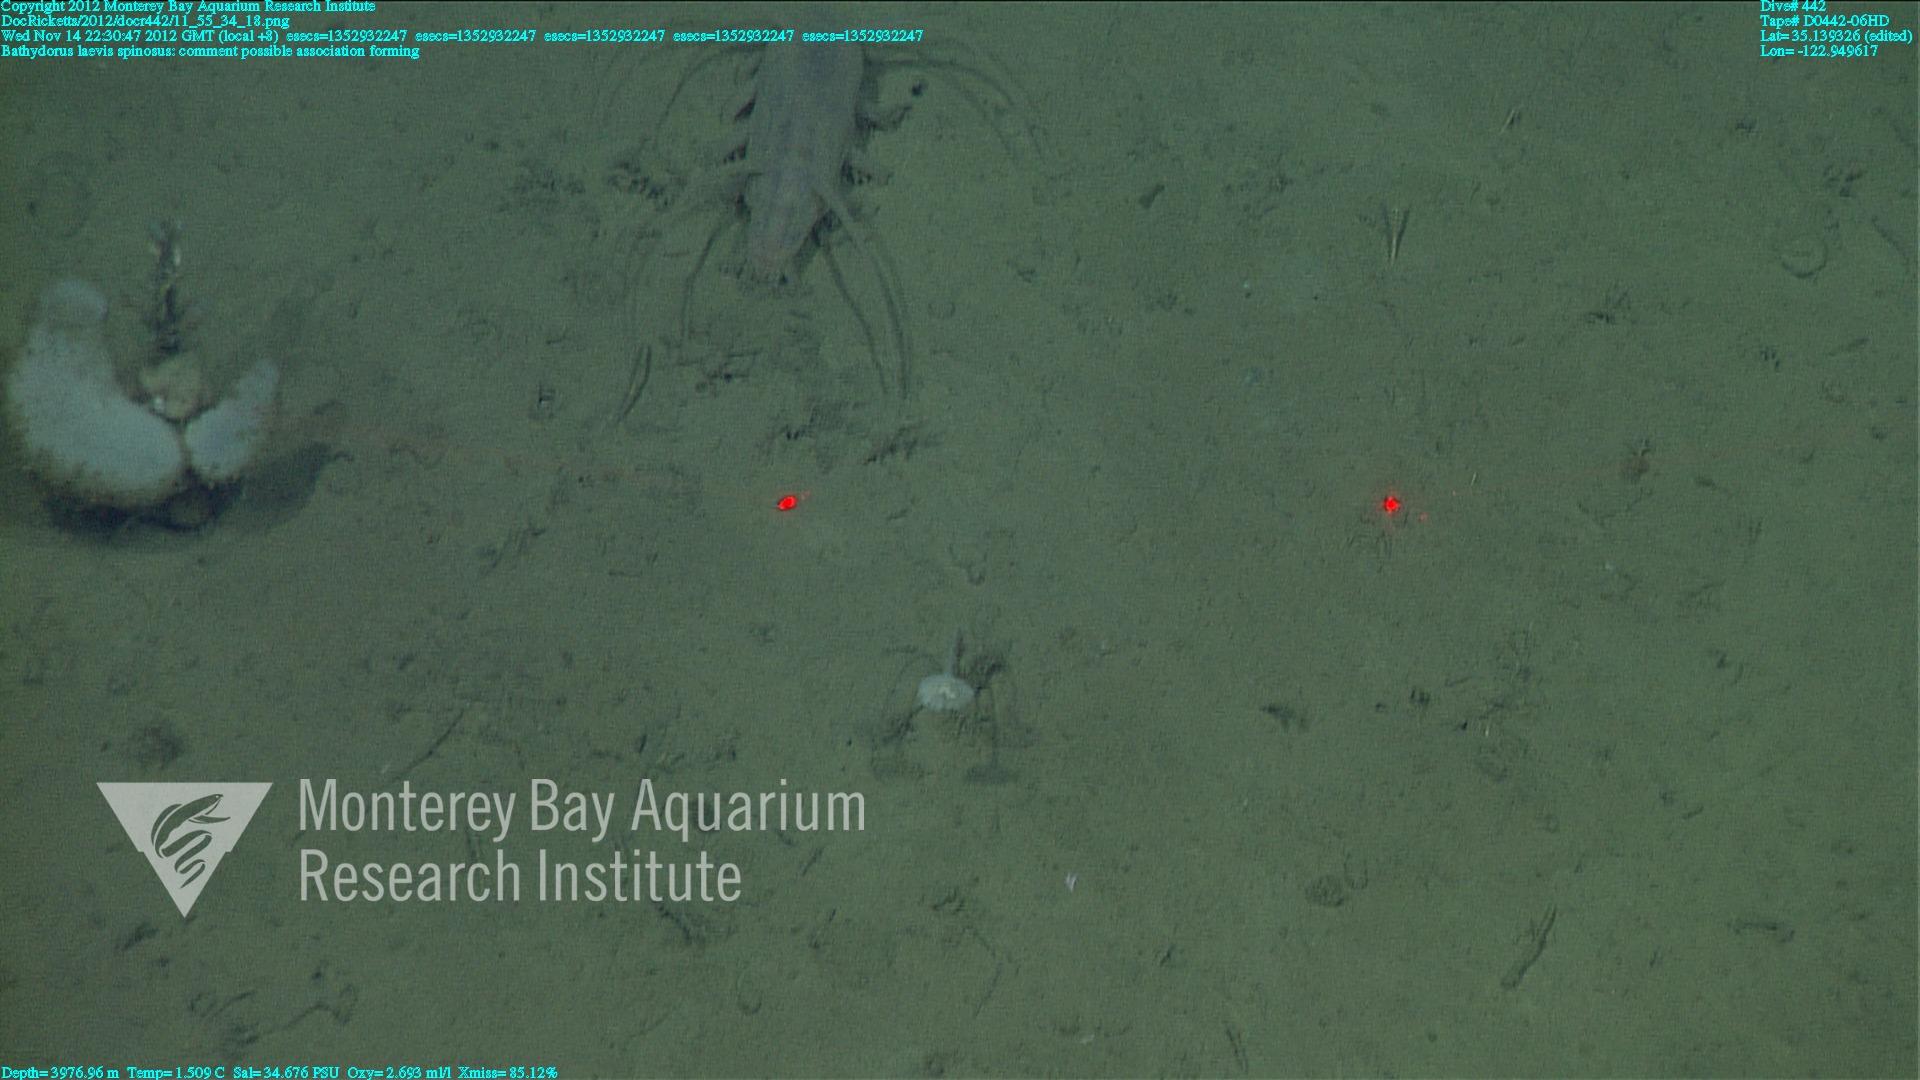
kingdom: Animalia
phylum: Porifera
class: Hexactinellida
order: Lyssacinosida
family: Rossellidae
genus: Bathydorus
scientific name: Bathydorus spinosus
